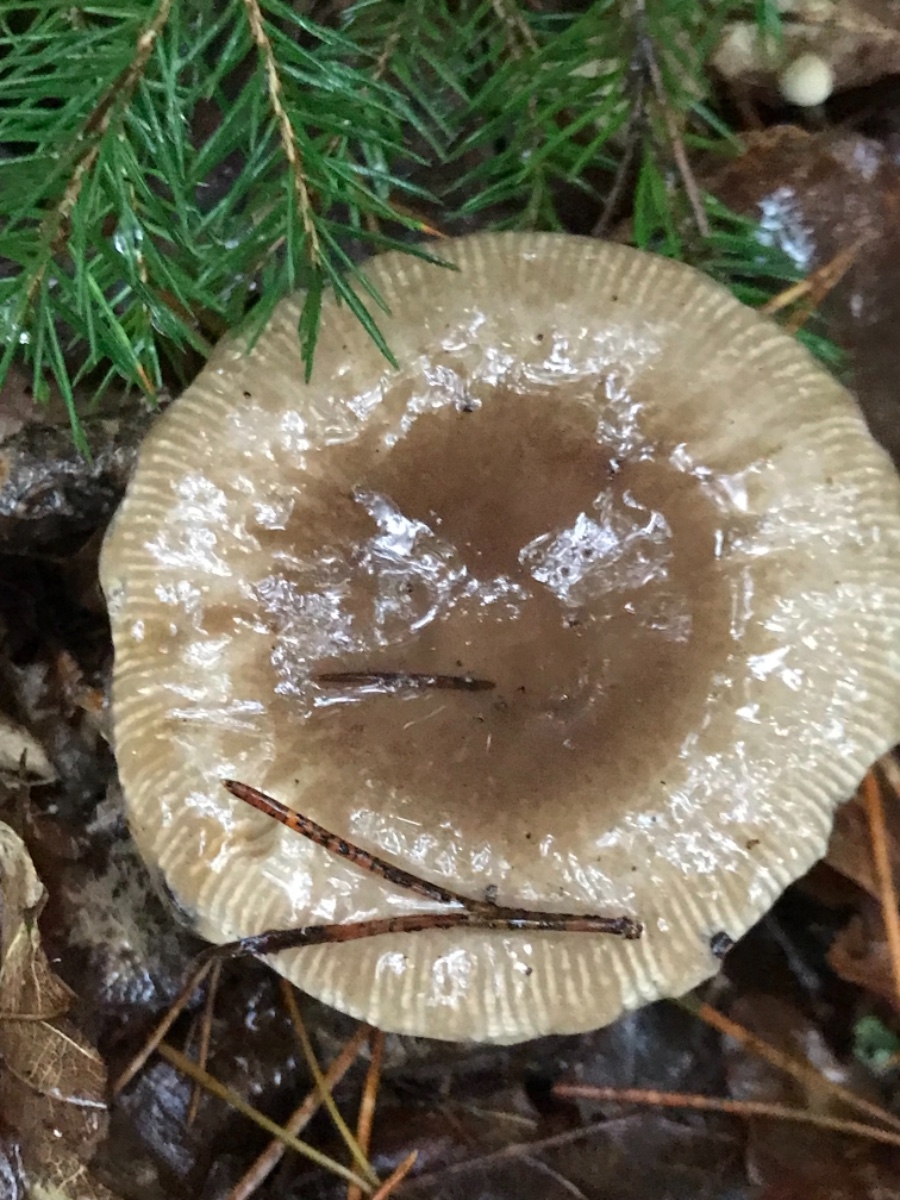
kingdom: Fungi
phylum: Basidiomycota
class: Agaricomycetes
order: Russulales
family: Russulaceae
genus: Russula
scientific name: Russula
